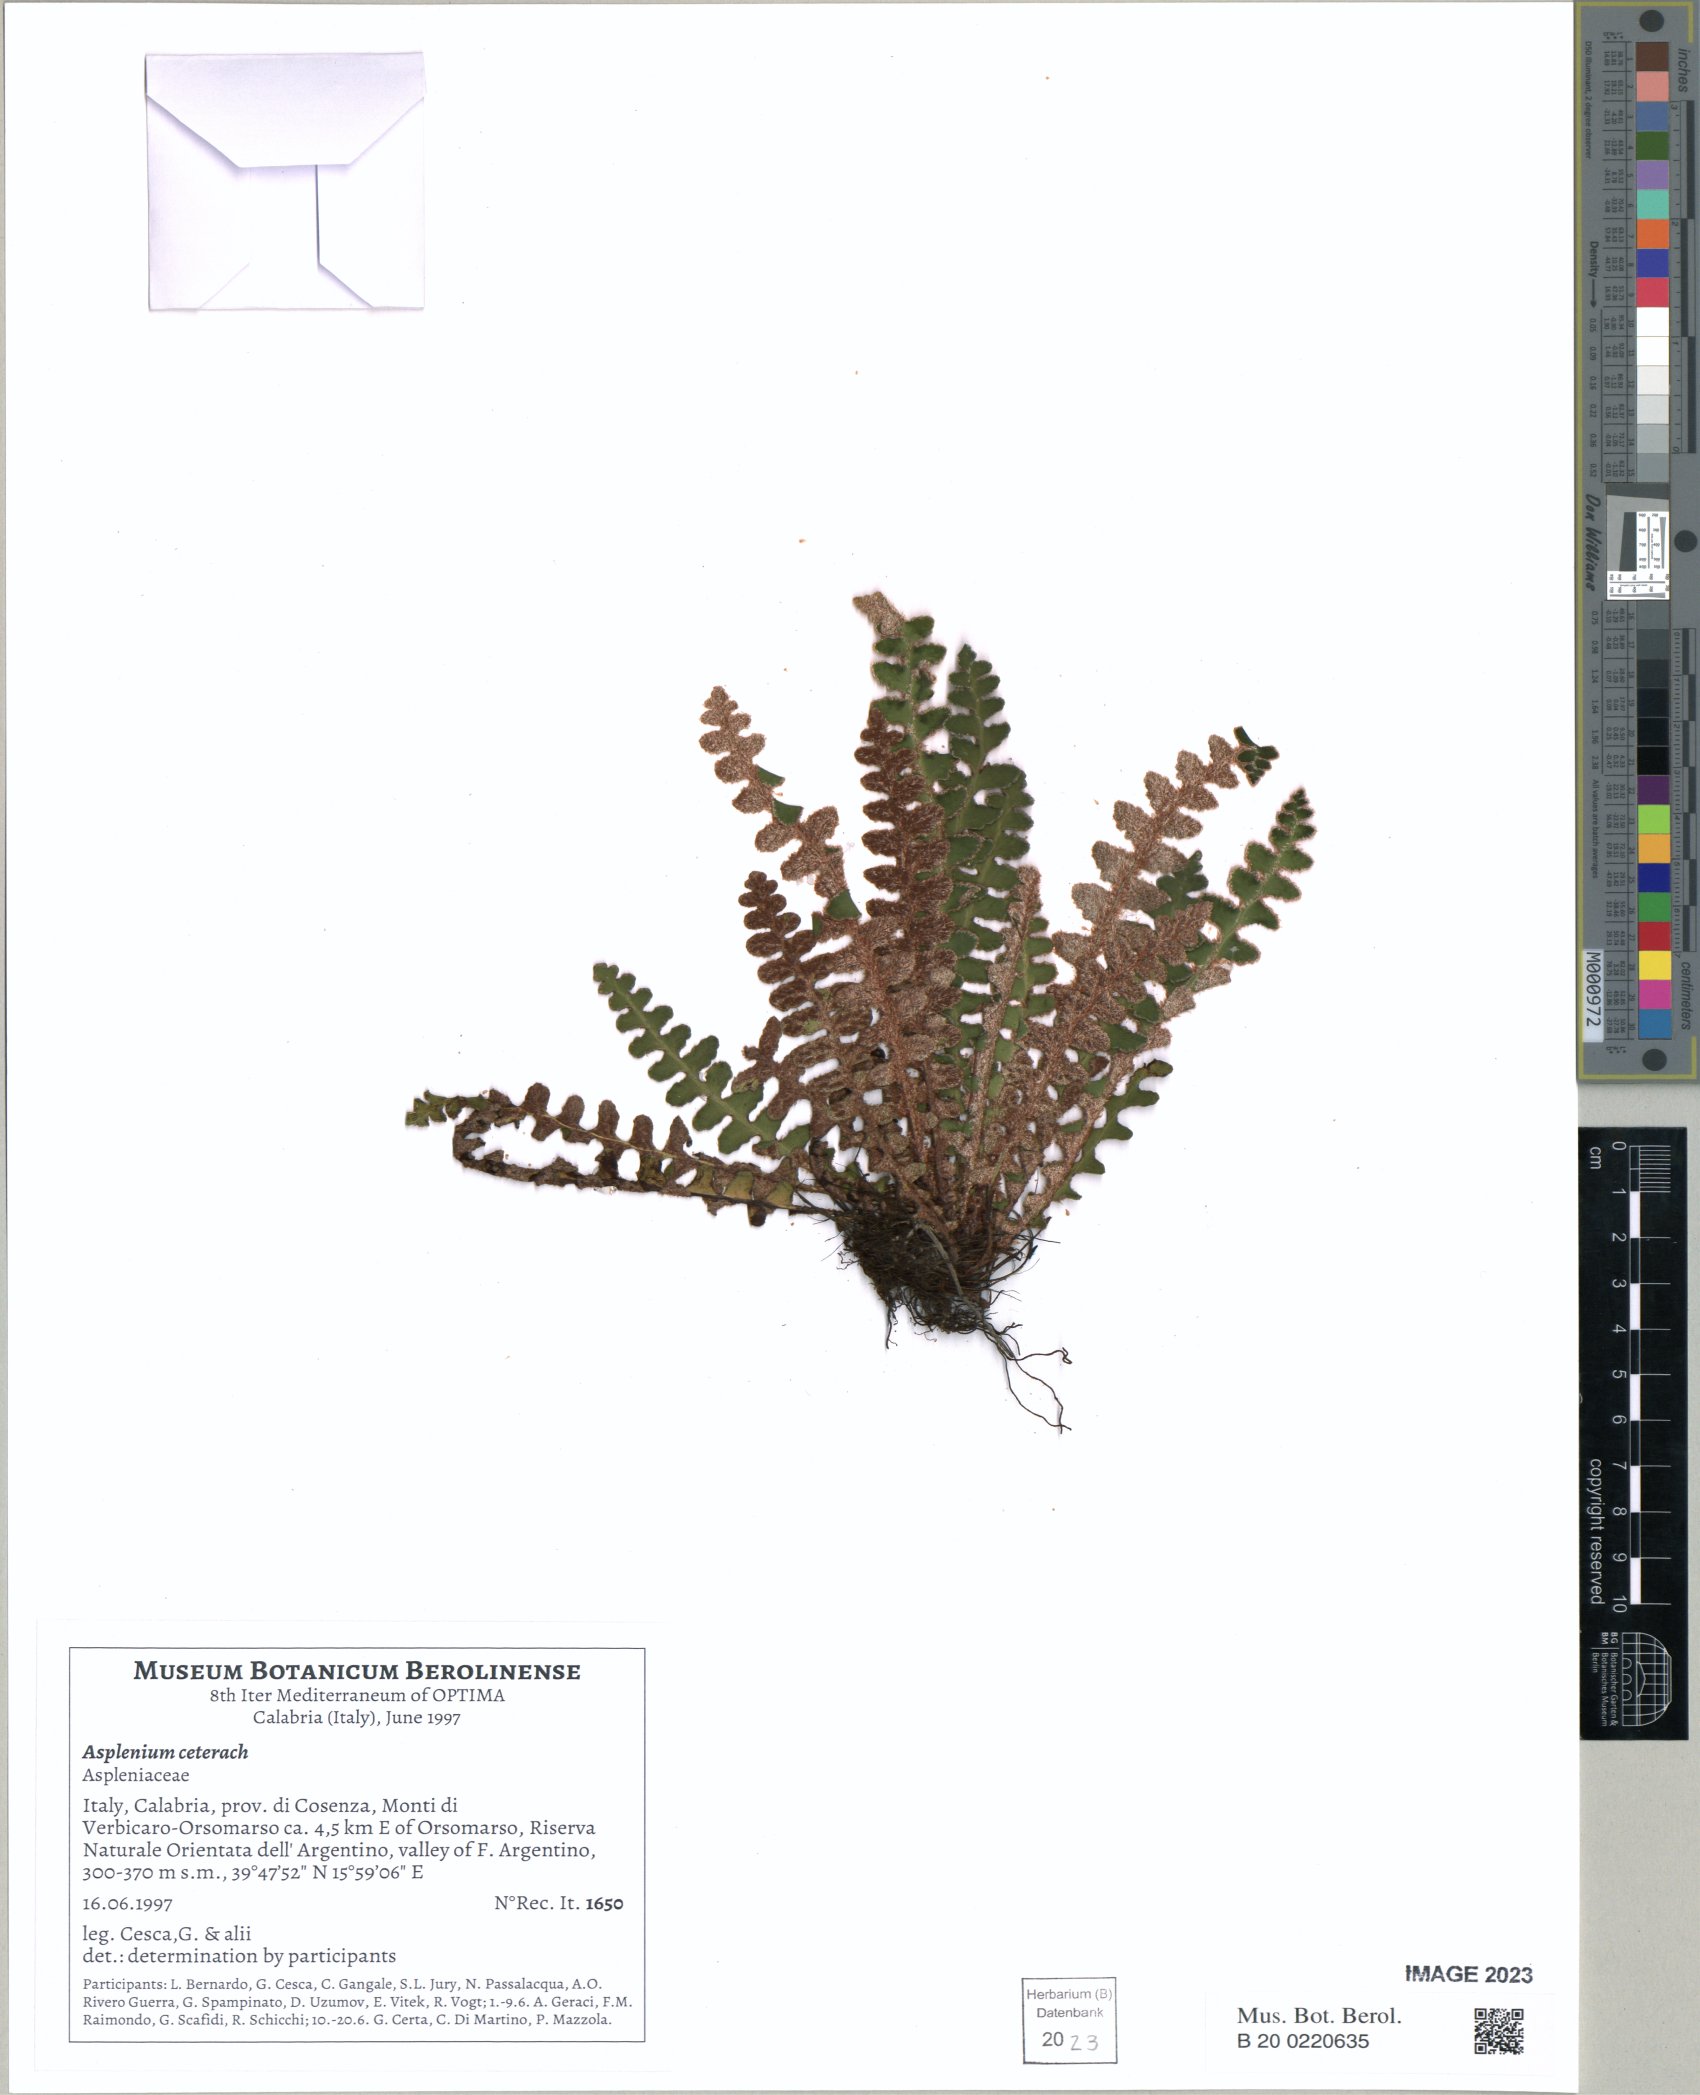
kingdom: Plantae
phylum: Tracheophyta
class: Polypodiopsida
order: Polypodiales
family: Aspleniaceae
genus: Asplenium
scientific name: Asplenium ceterach
